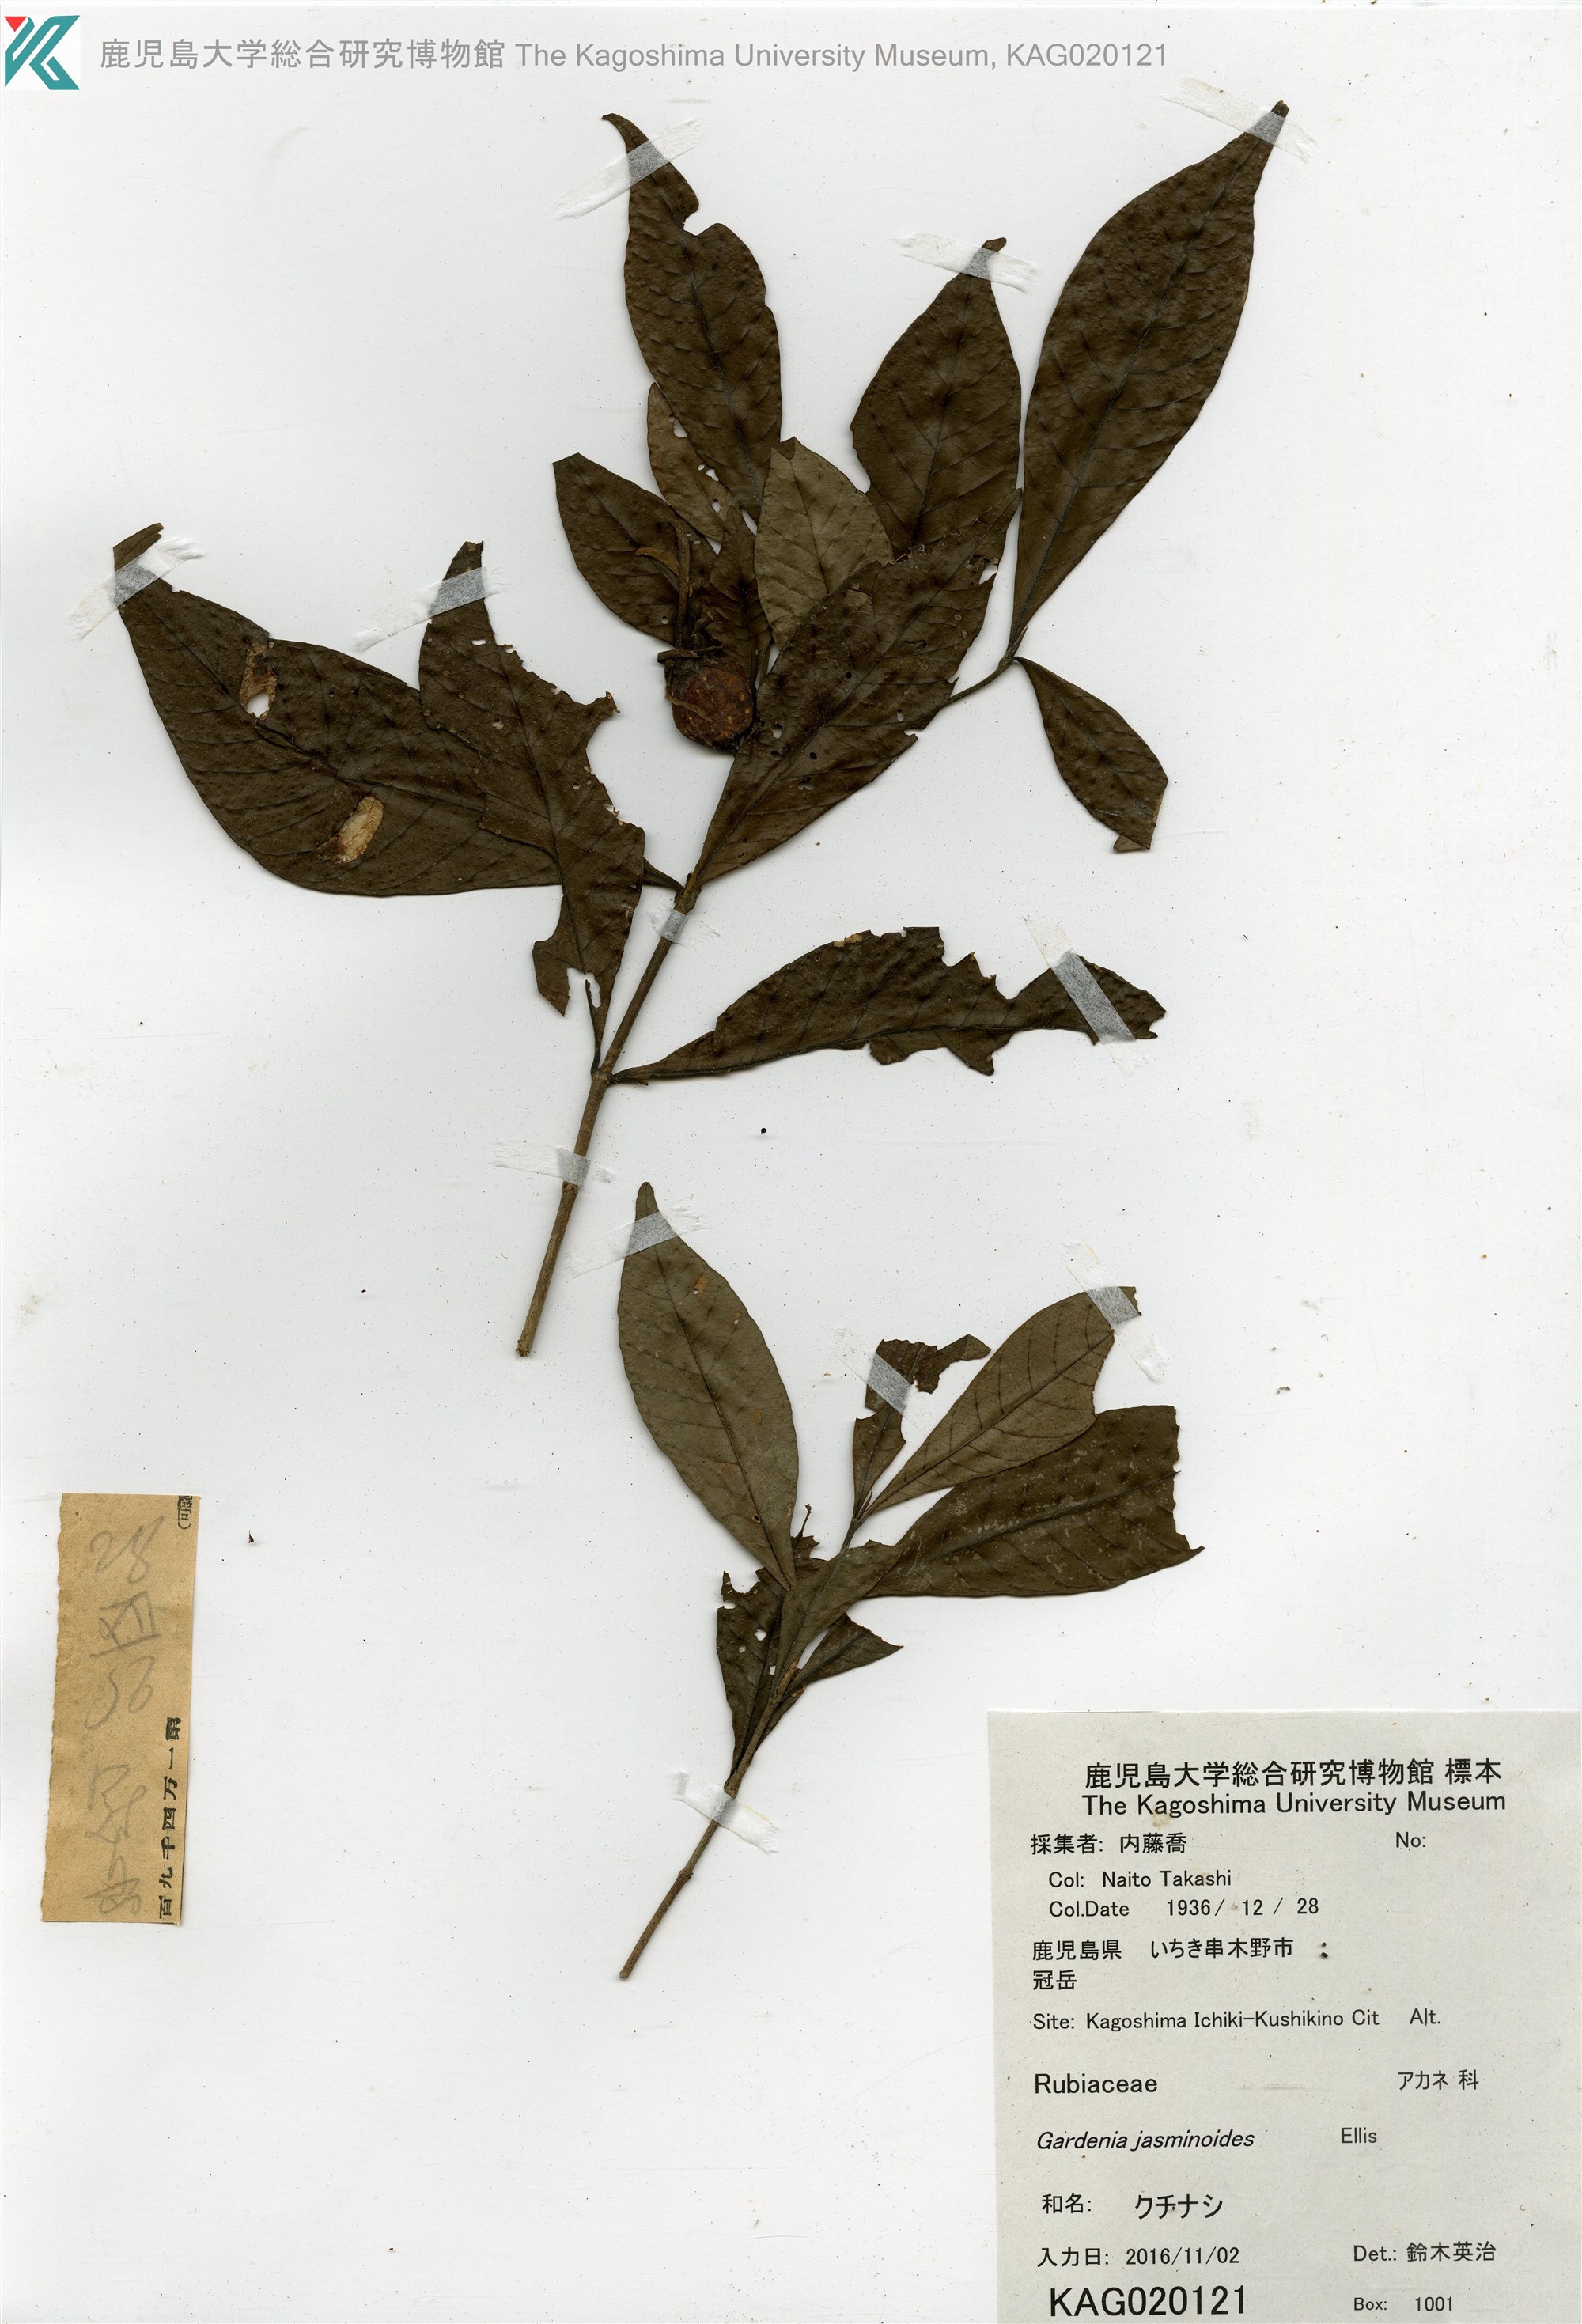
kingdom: Plantae
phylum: Tracheophyta
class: Magnoliopsida
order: Gentianales
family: Rubiaceae
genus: Gardenia
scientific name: Gardenia jasminoides
